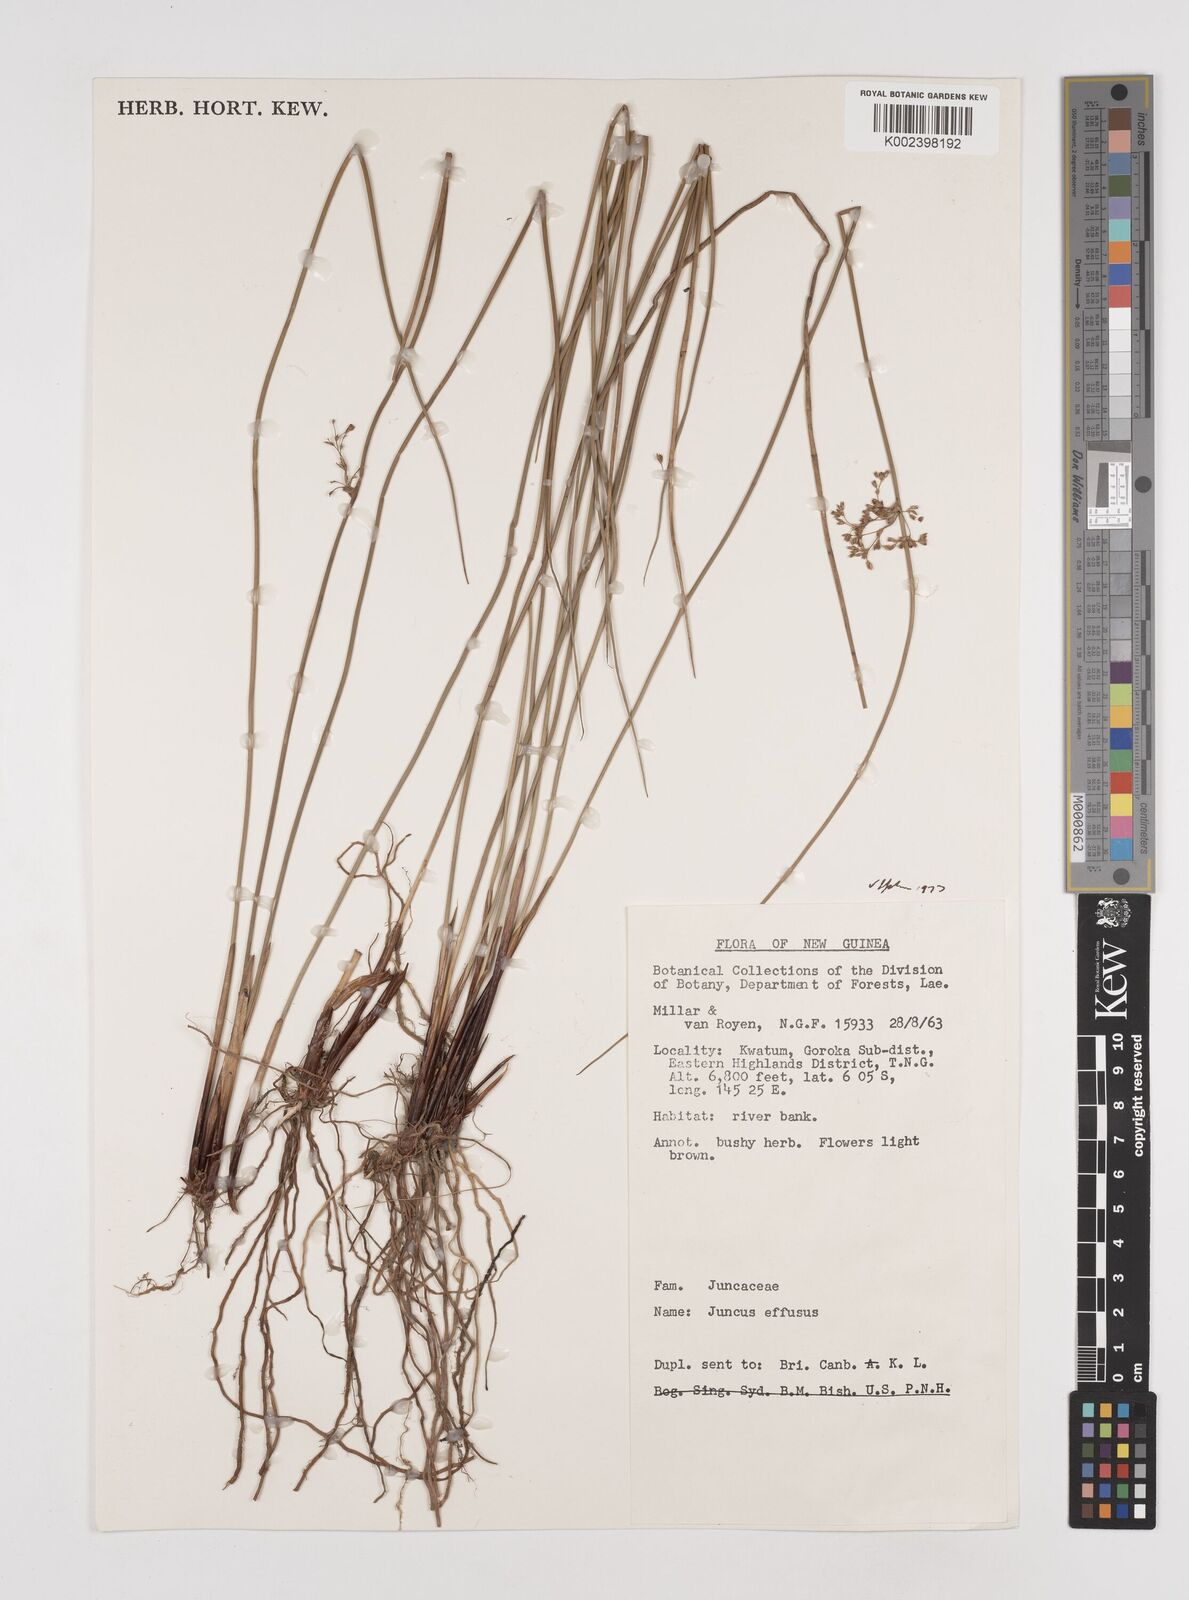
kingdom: Plantae
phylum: Tracheophyta
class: Liliopsida
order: Poales
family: Juncaceae
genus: Juncus
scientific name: Juncus decipiens
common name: Lamp rush
